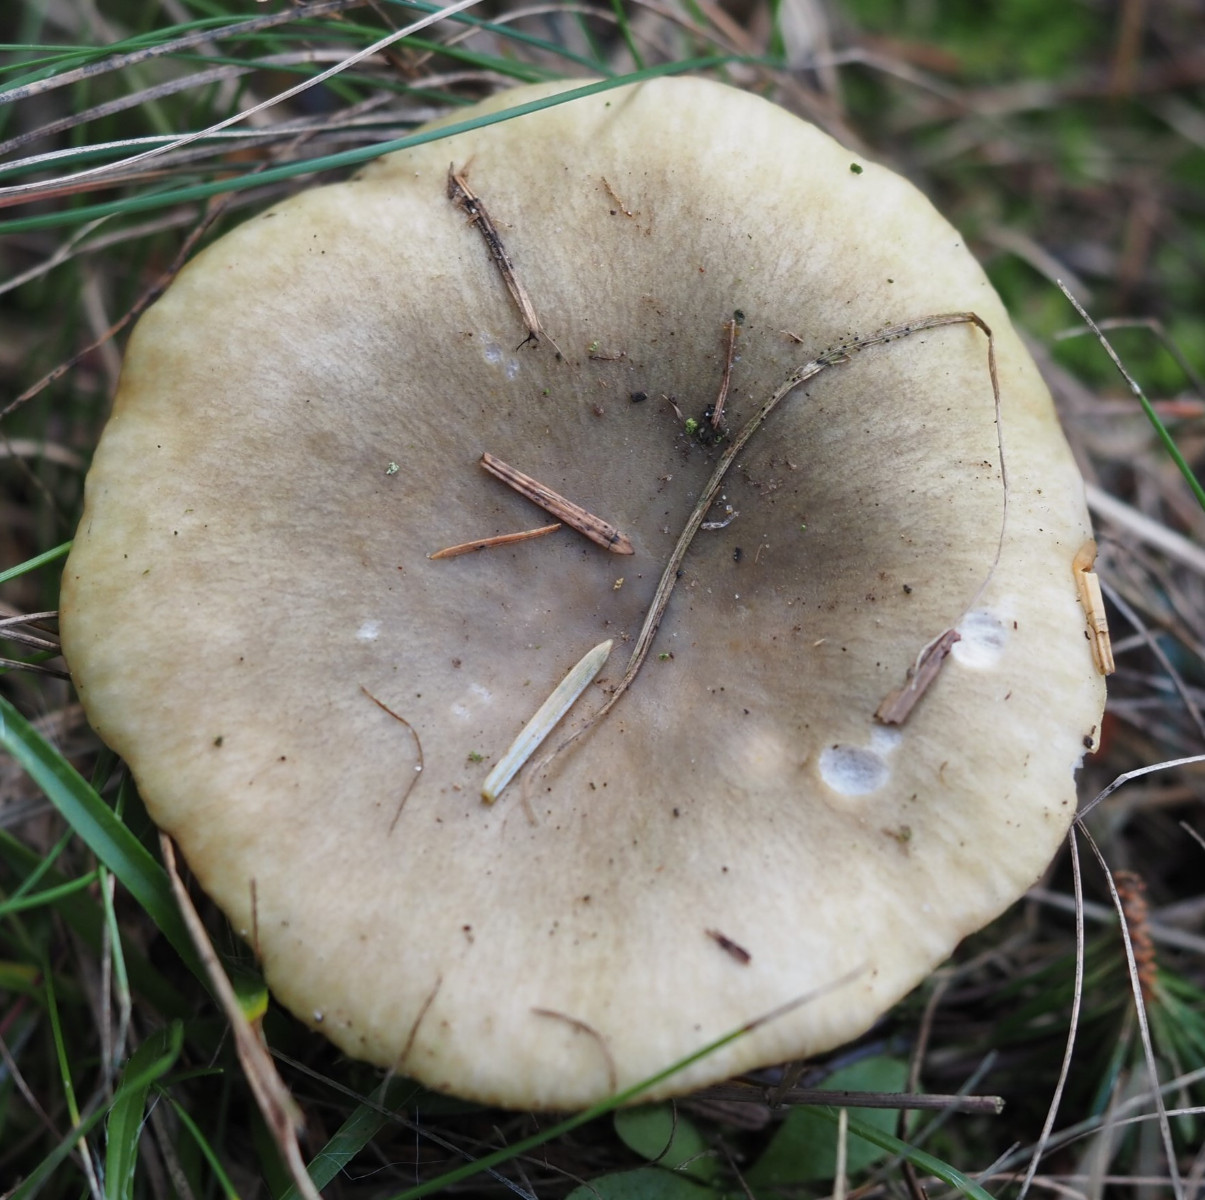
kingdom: Fungi
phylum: Basidiomycota
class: Agaricomycetes
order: Russulales
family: Russulaceae
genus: Russula
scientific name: Russula ochroleuca
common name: okkergul skørhat
